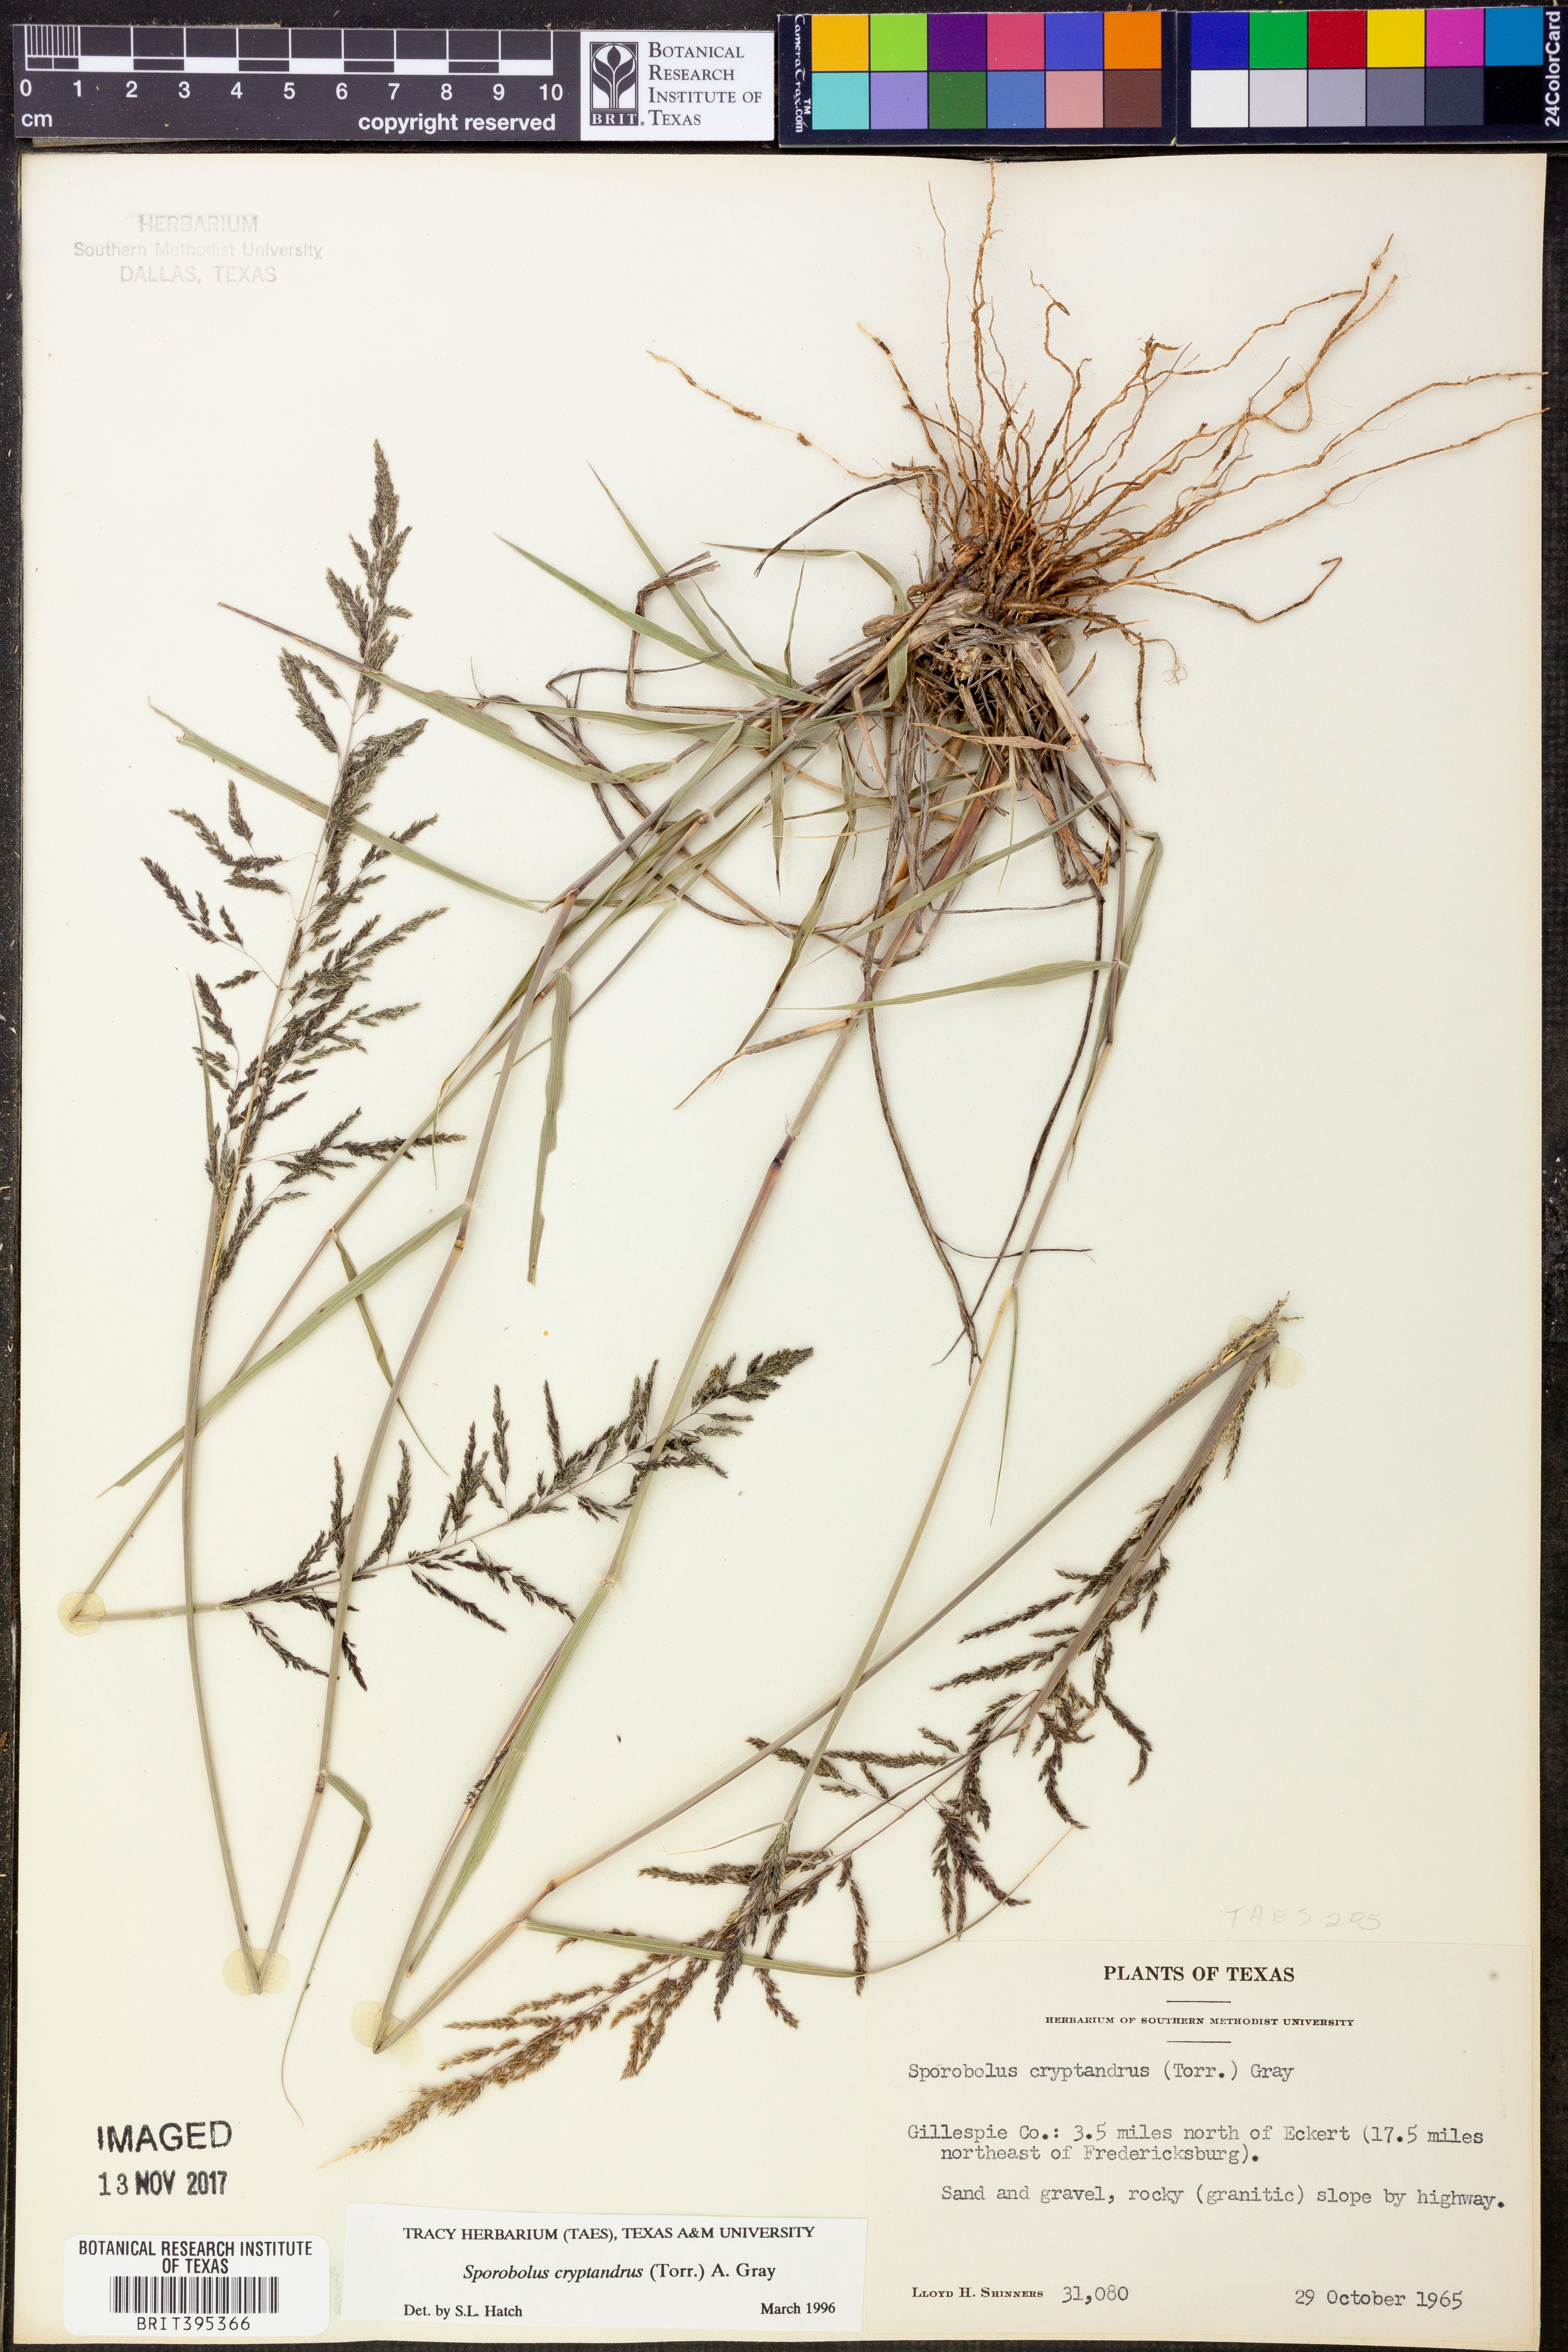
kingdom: Plantae
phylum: Tracheophyta
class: Liliopsida
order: Poales
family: Poaceae
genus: Sporobolus
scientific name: Sporobolus cryptandrus
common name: Sand dropseed
